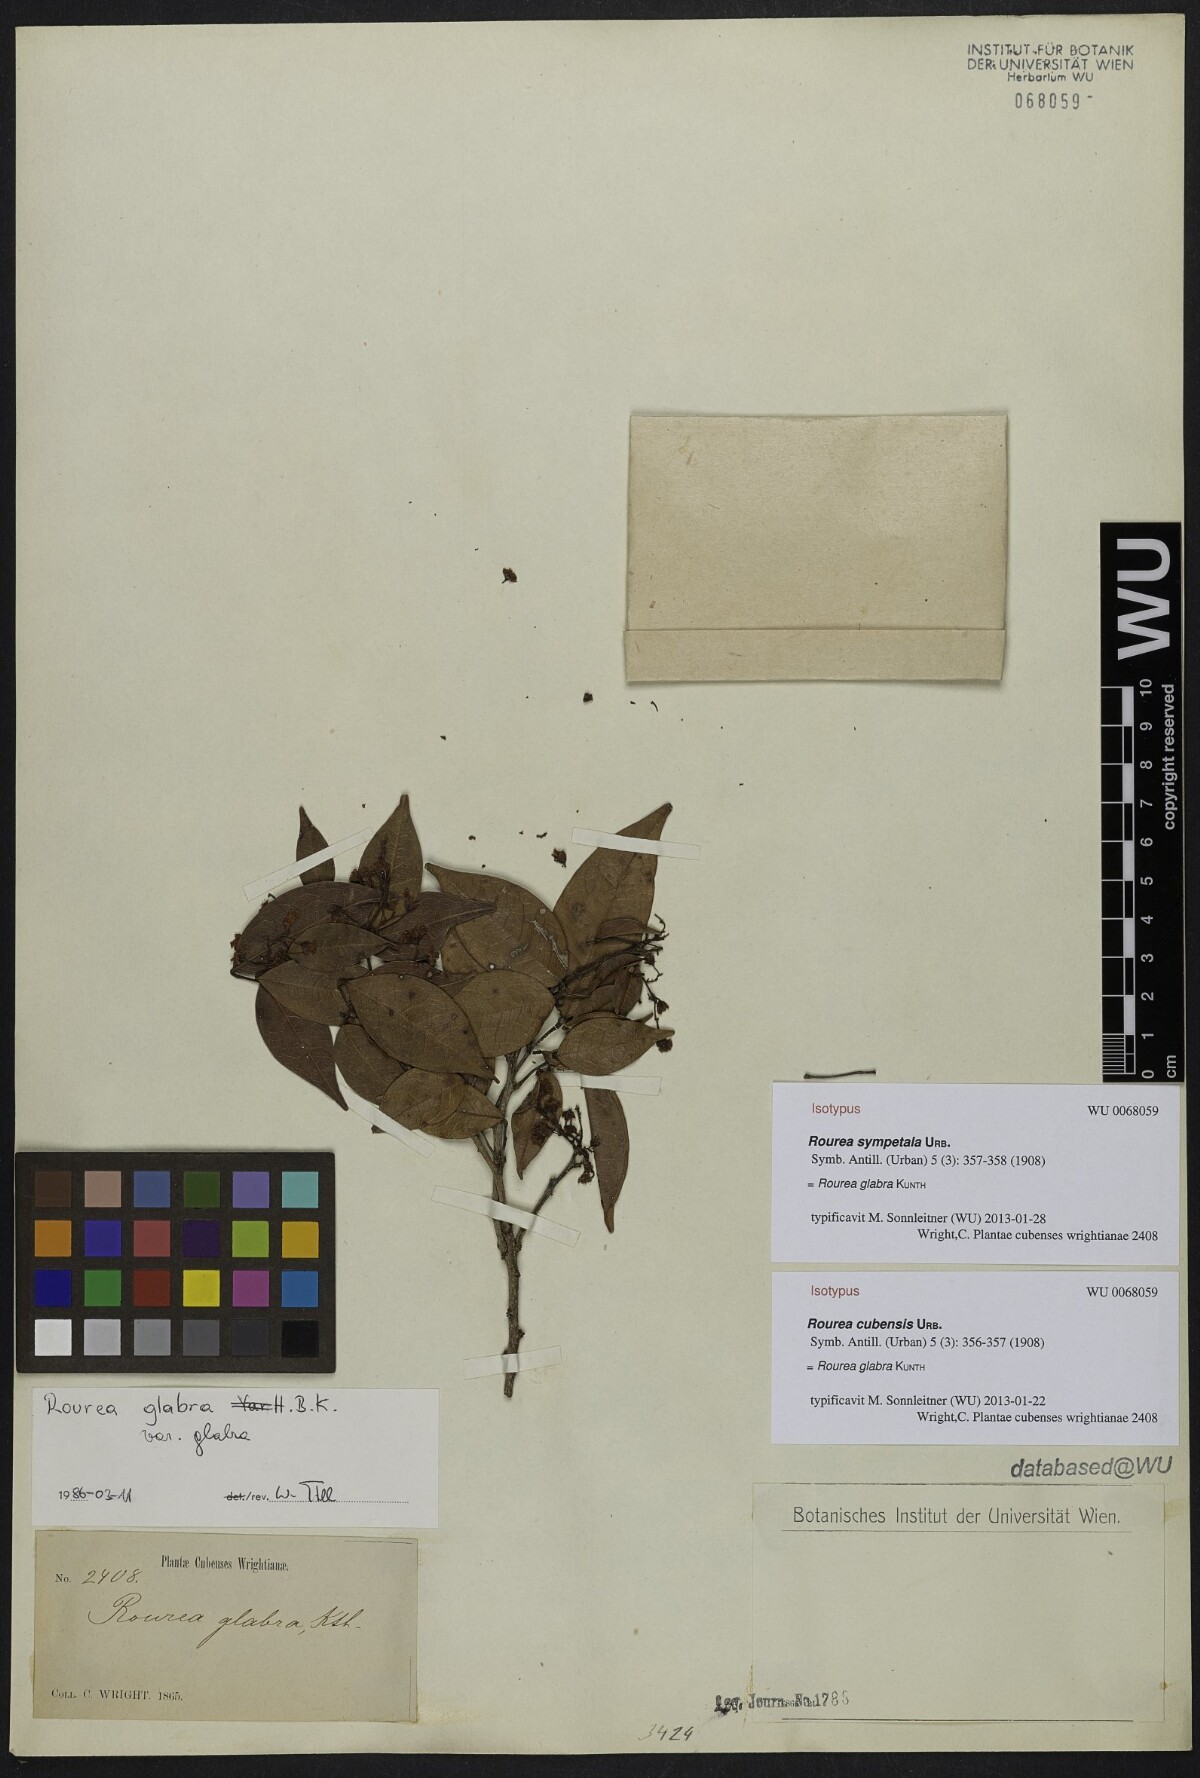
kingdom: Plantae
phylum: Tracheophyta
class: Magnoliopsida
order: Oxalidales
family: Connaraceae
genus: Rourea
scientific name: Rourea glabra
